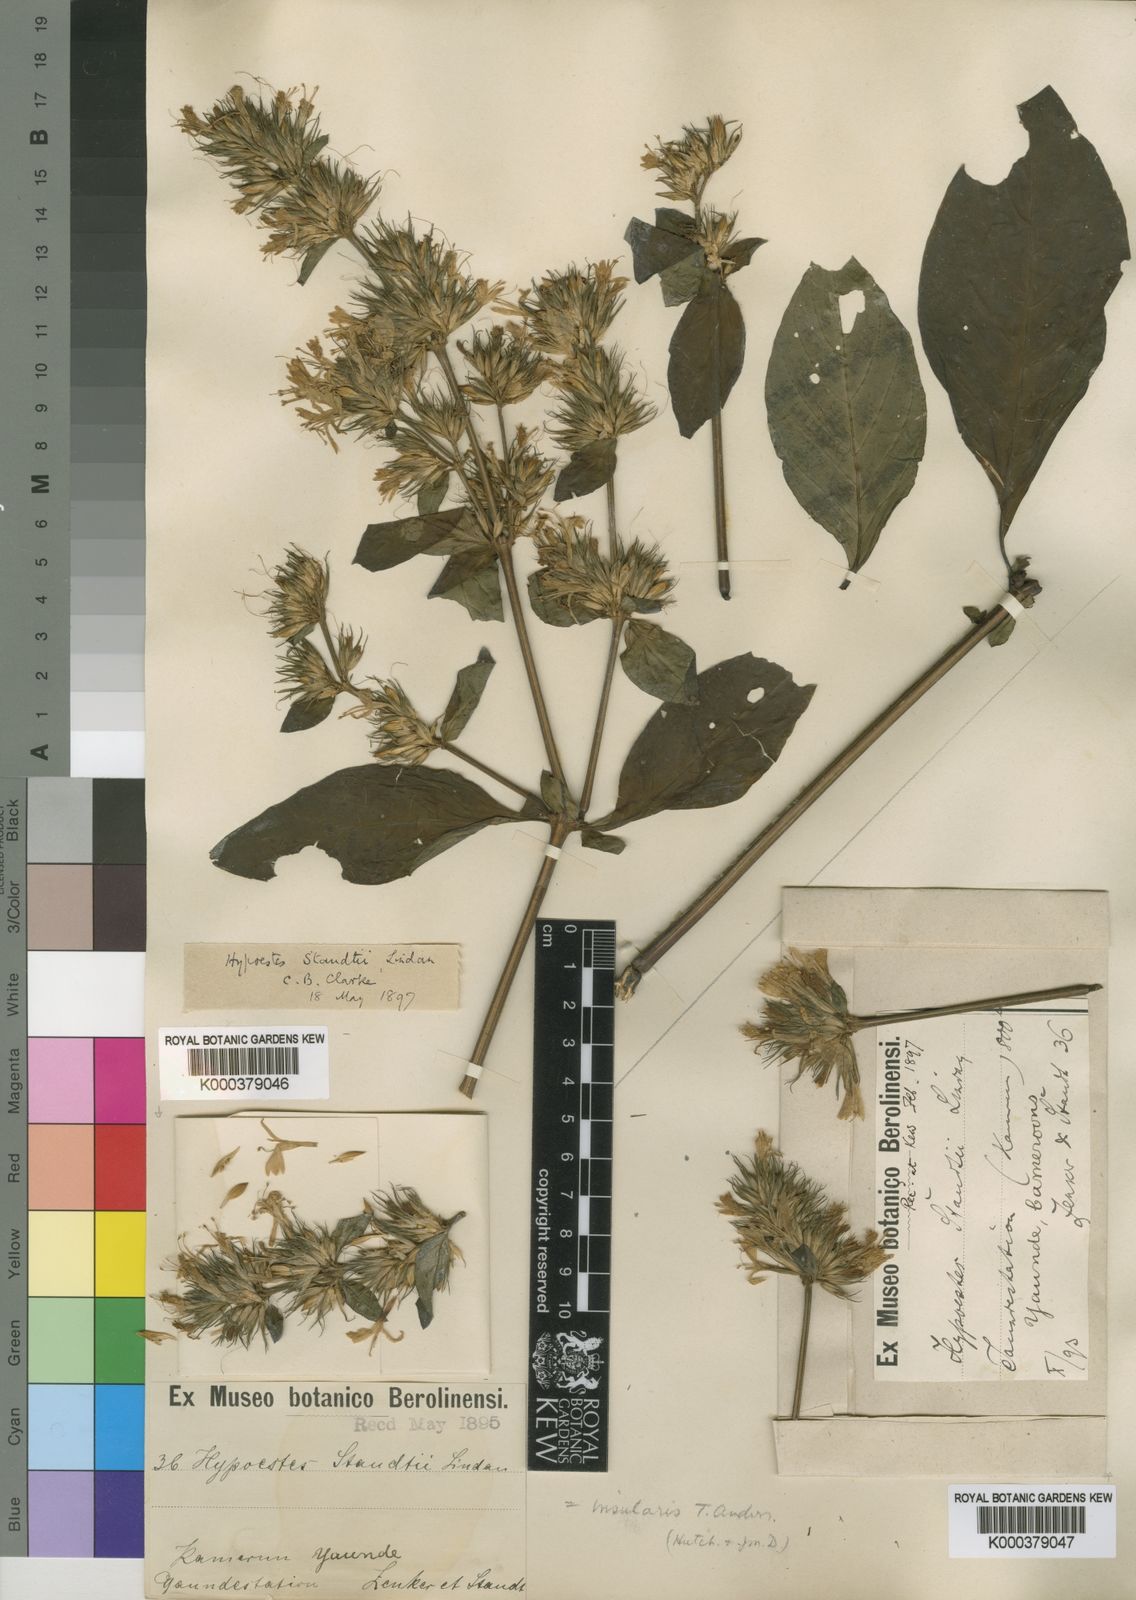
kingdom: Plantae
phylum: Tracheophyta
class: Magnoliopsida
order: Lamiales
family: Acanthaceae
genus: Hypoestes
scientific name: Hypoestes aristata
